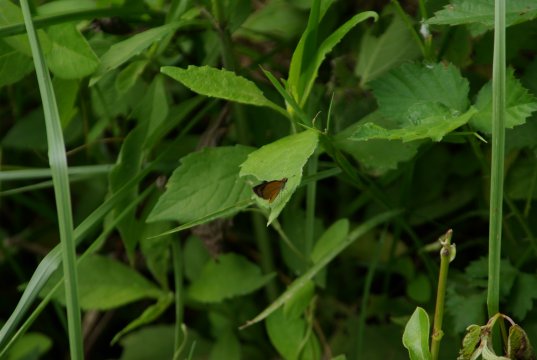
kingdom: Animalia
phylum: Arthropoda
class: Insecta
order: Lepidoptera
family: Hesperiidae
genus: Ancyloxypha
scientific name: Ancyloxypha numitor
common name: Least Skipper
